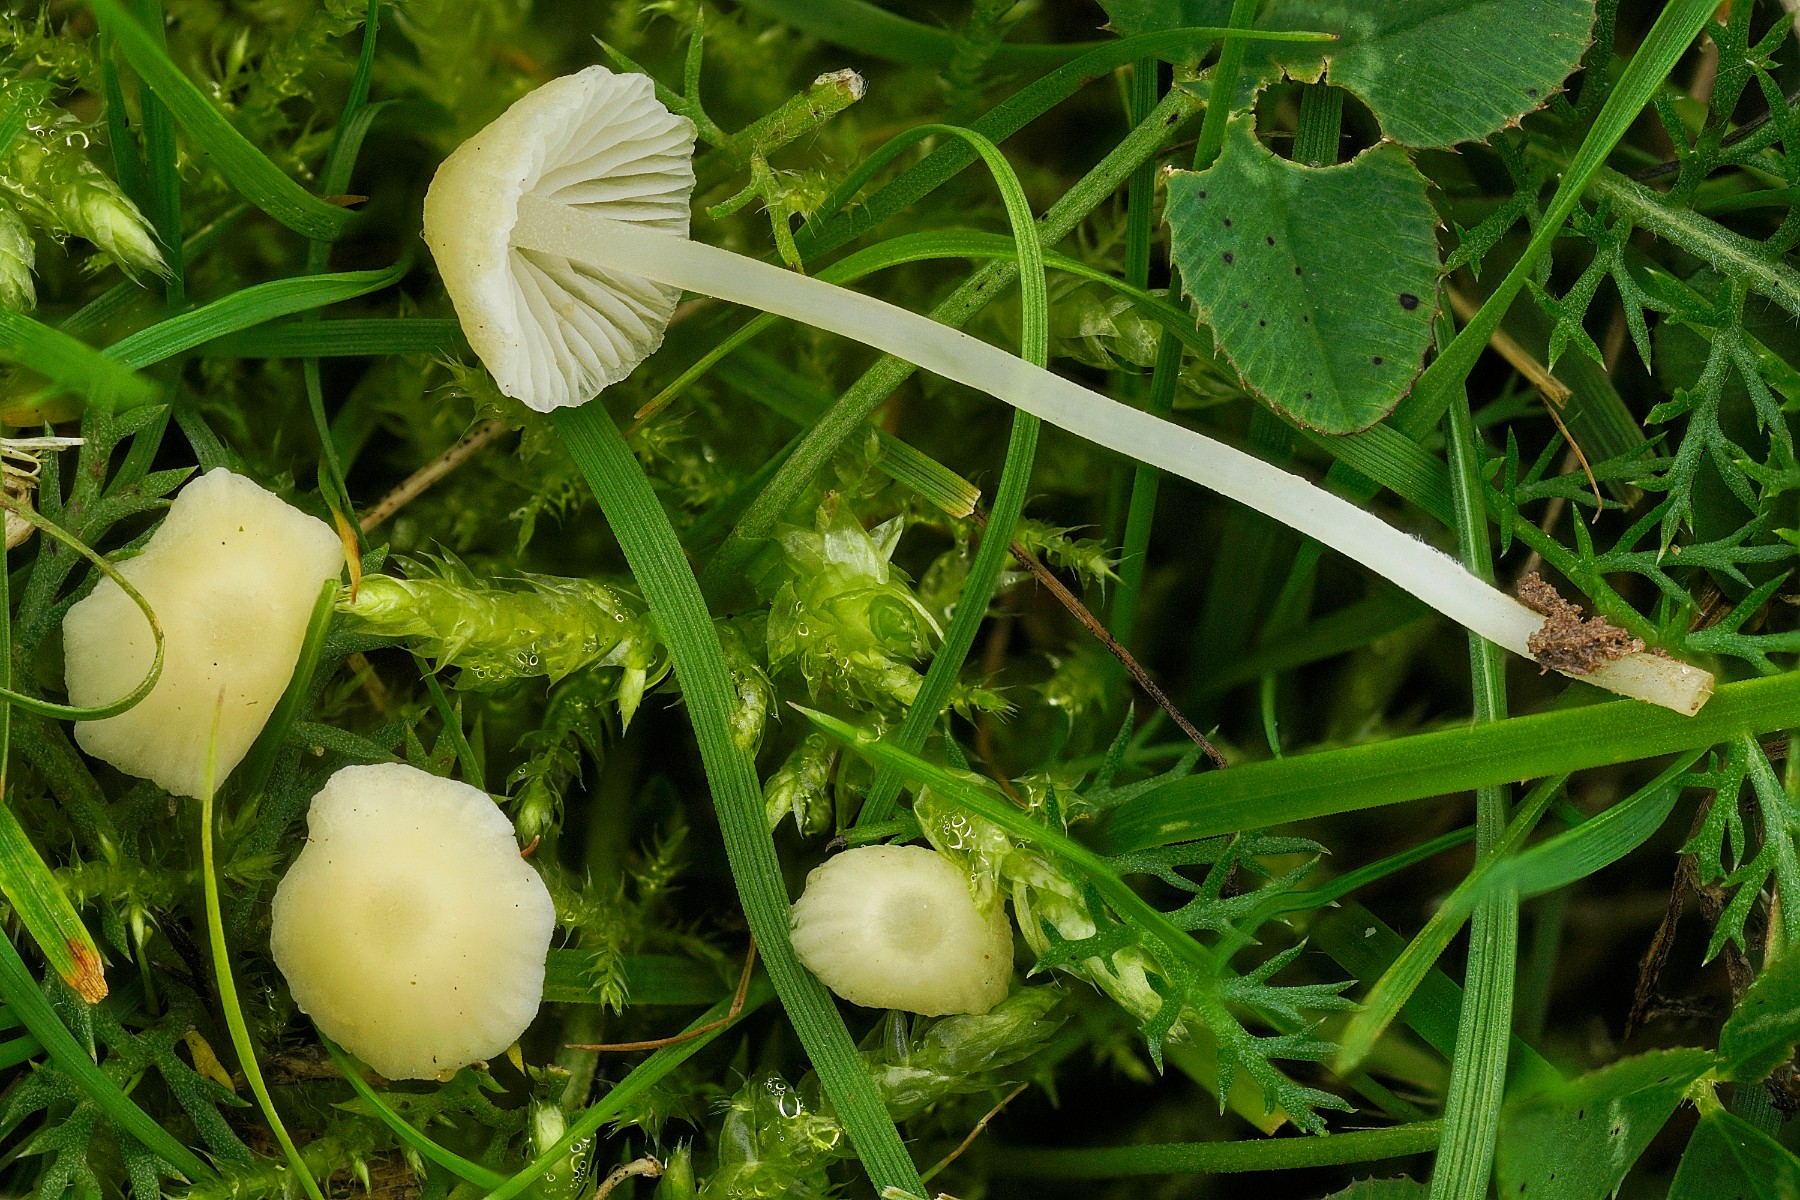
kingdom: Fungi
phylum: Basidiomycota
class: Agaricomycetes
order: Agaricales
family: Mycenaceae
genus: Atheniella
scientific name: Atheniella flavoalba
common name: gulhvid huesvamp
